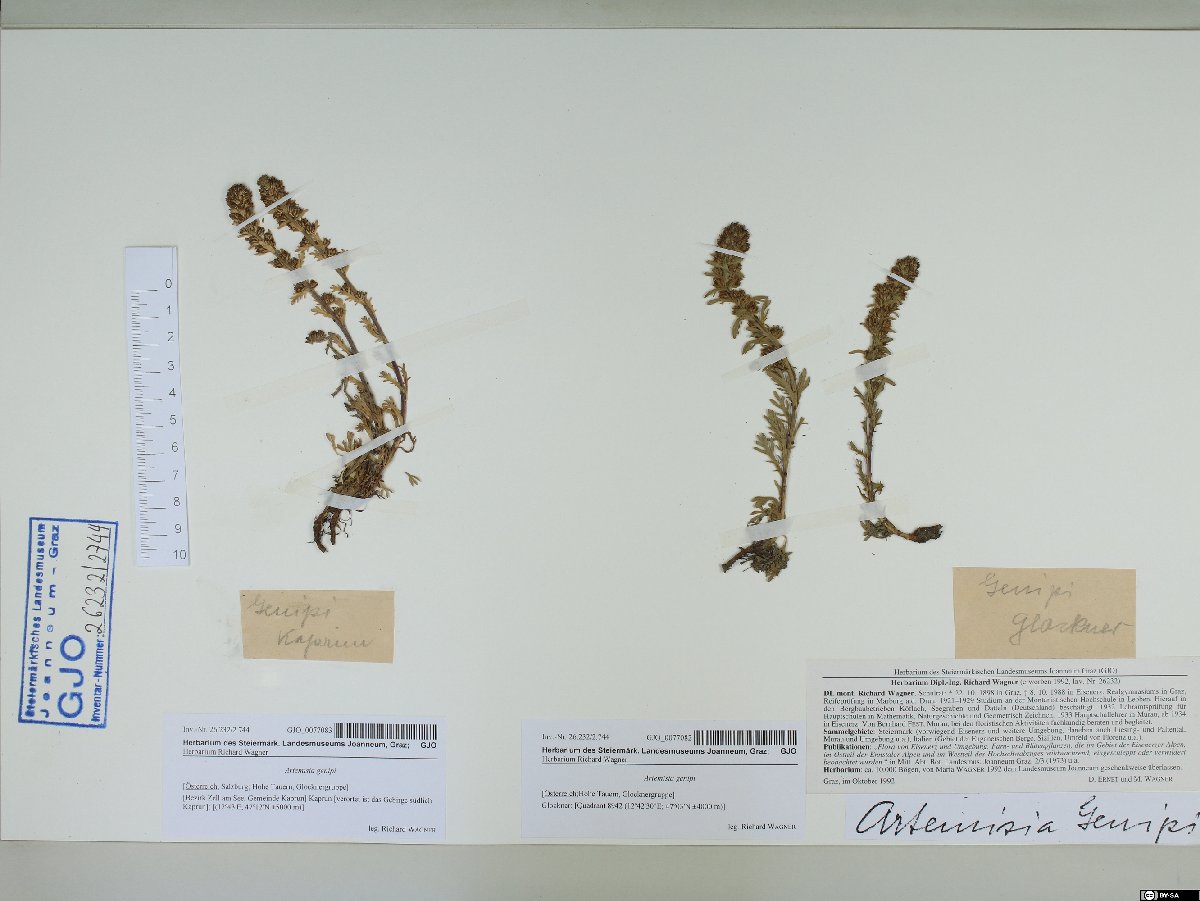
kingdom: Plantae
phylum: Tracheophyta
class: Magnoliopsida
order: Asterales
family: Asteraceae
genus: Artemisia
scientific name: Artemisia genipi
